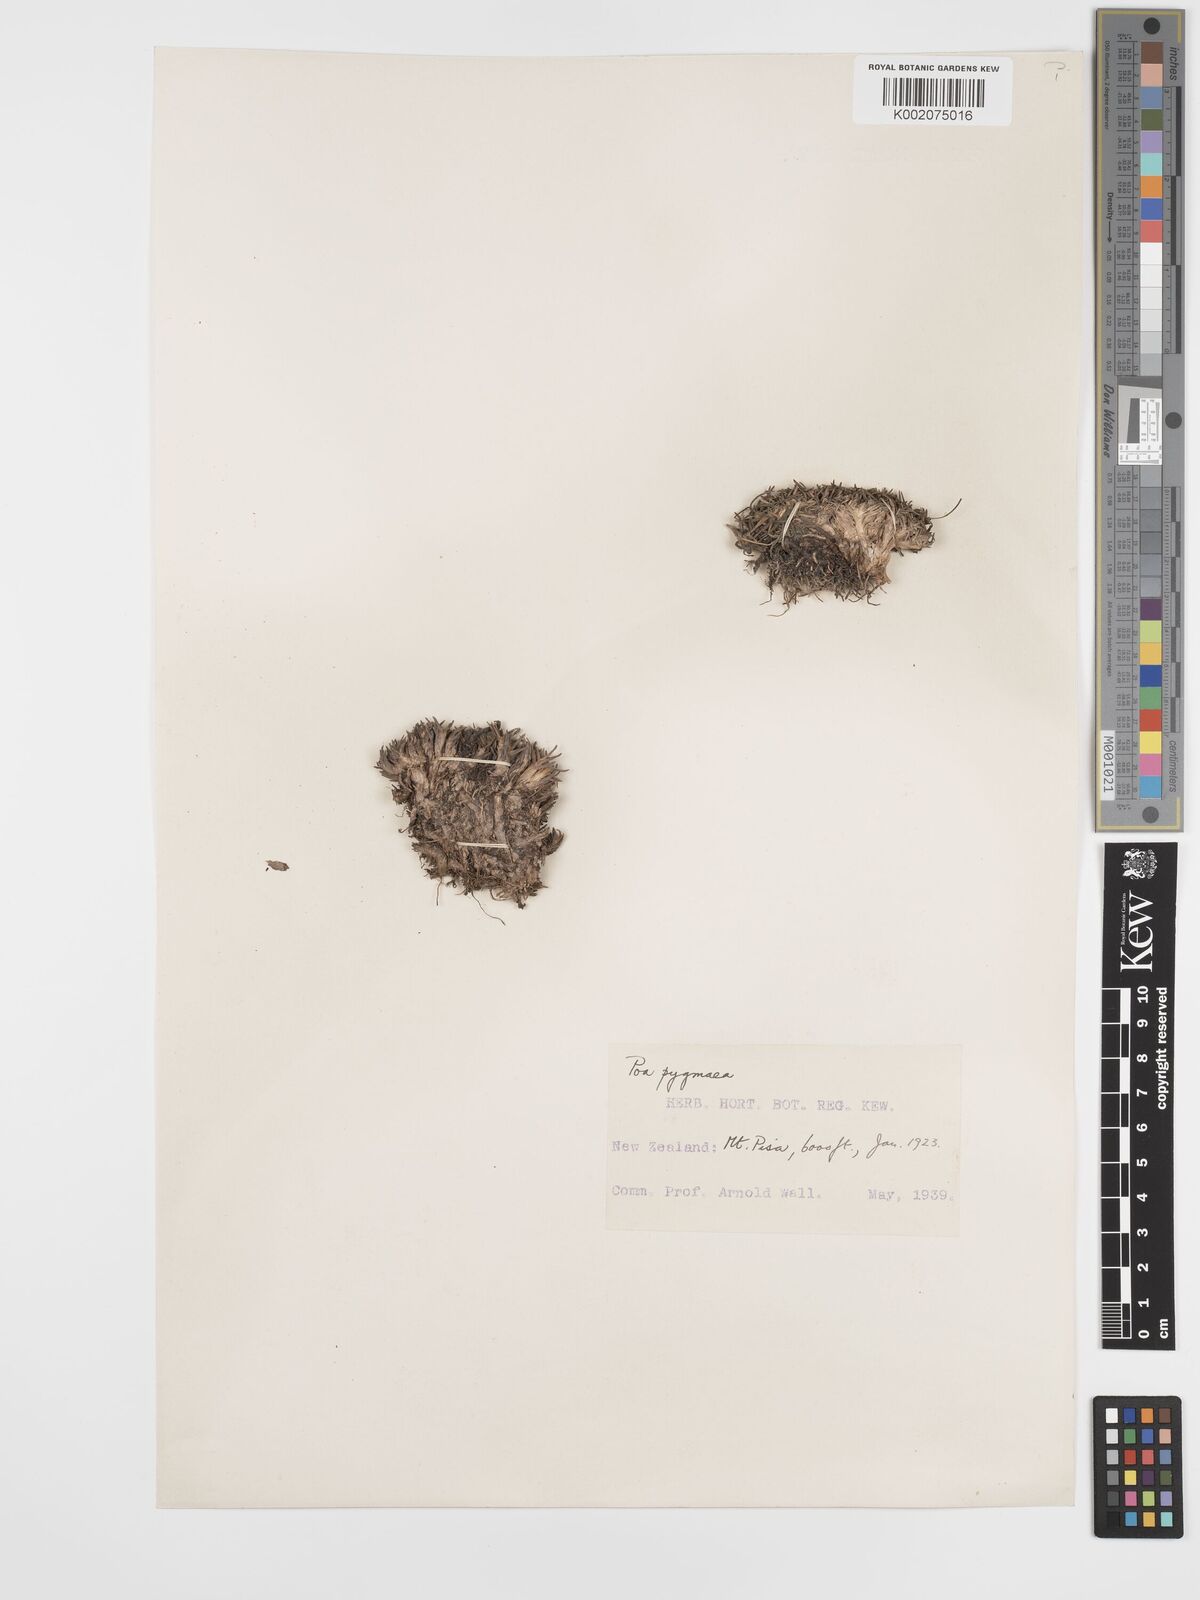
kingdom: Plantae
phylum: Tracheophyta
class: Liliopsida
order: Poales
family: Poaceae
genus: Poa
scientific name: Poa pygmaea
